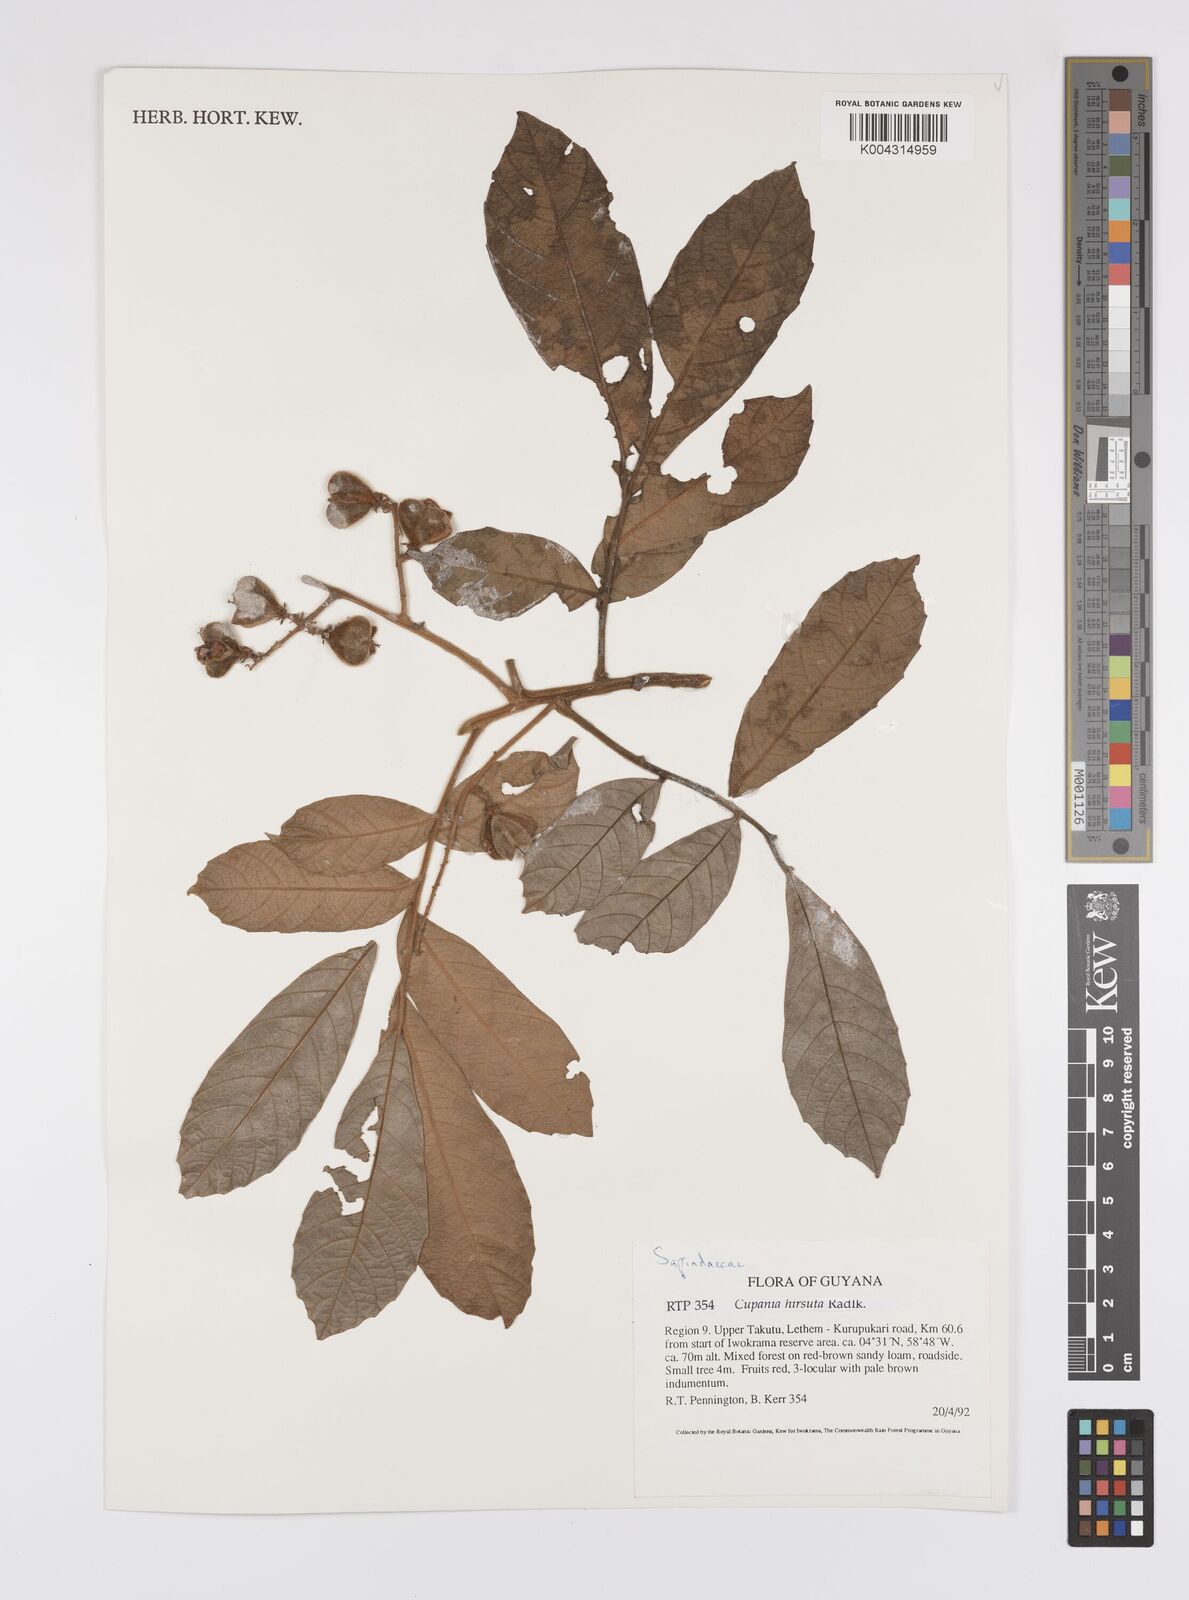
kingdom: Plantae
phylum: Tracheophyta
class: Magnoliopsida
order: Sapindales
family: Sapindaceae
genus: Cupania
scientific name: Cupania
